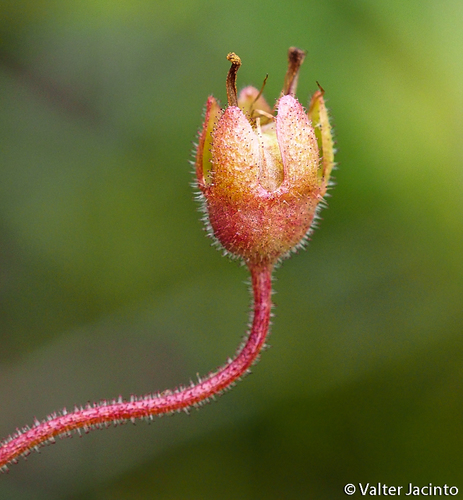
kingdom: Plantae
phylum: Tracheophyta
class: Magnoliopsida
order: Saxifragales
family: Saxifragaceae
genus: Saxifraga
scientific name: Saxifraga granulata
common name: Meadow saxifrage
